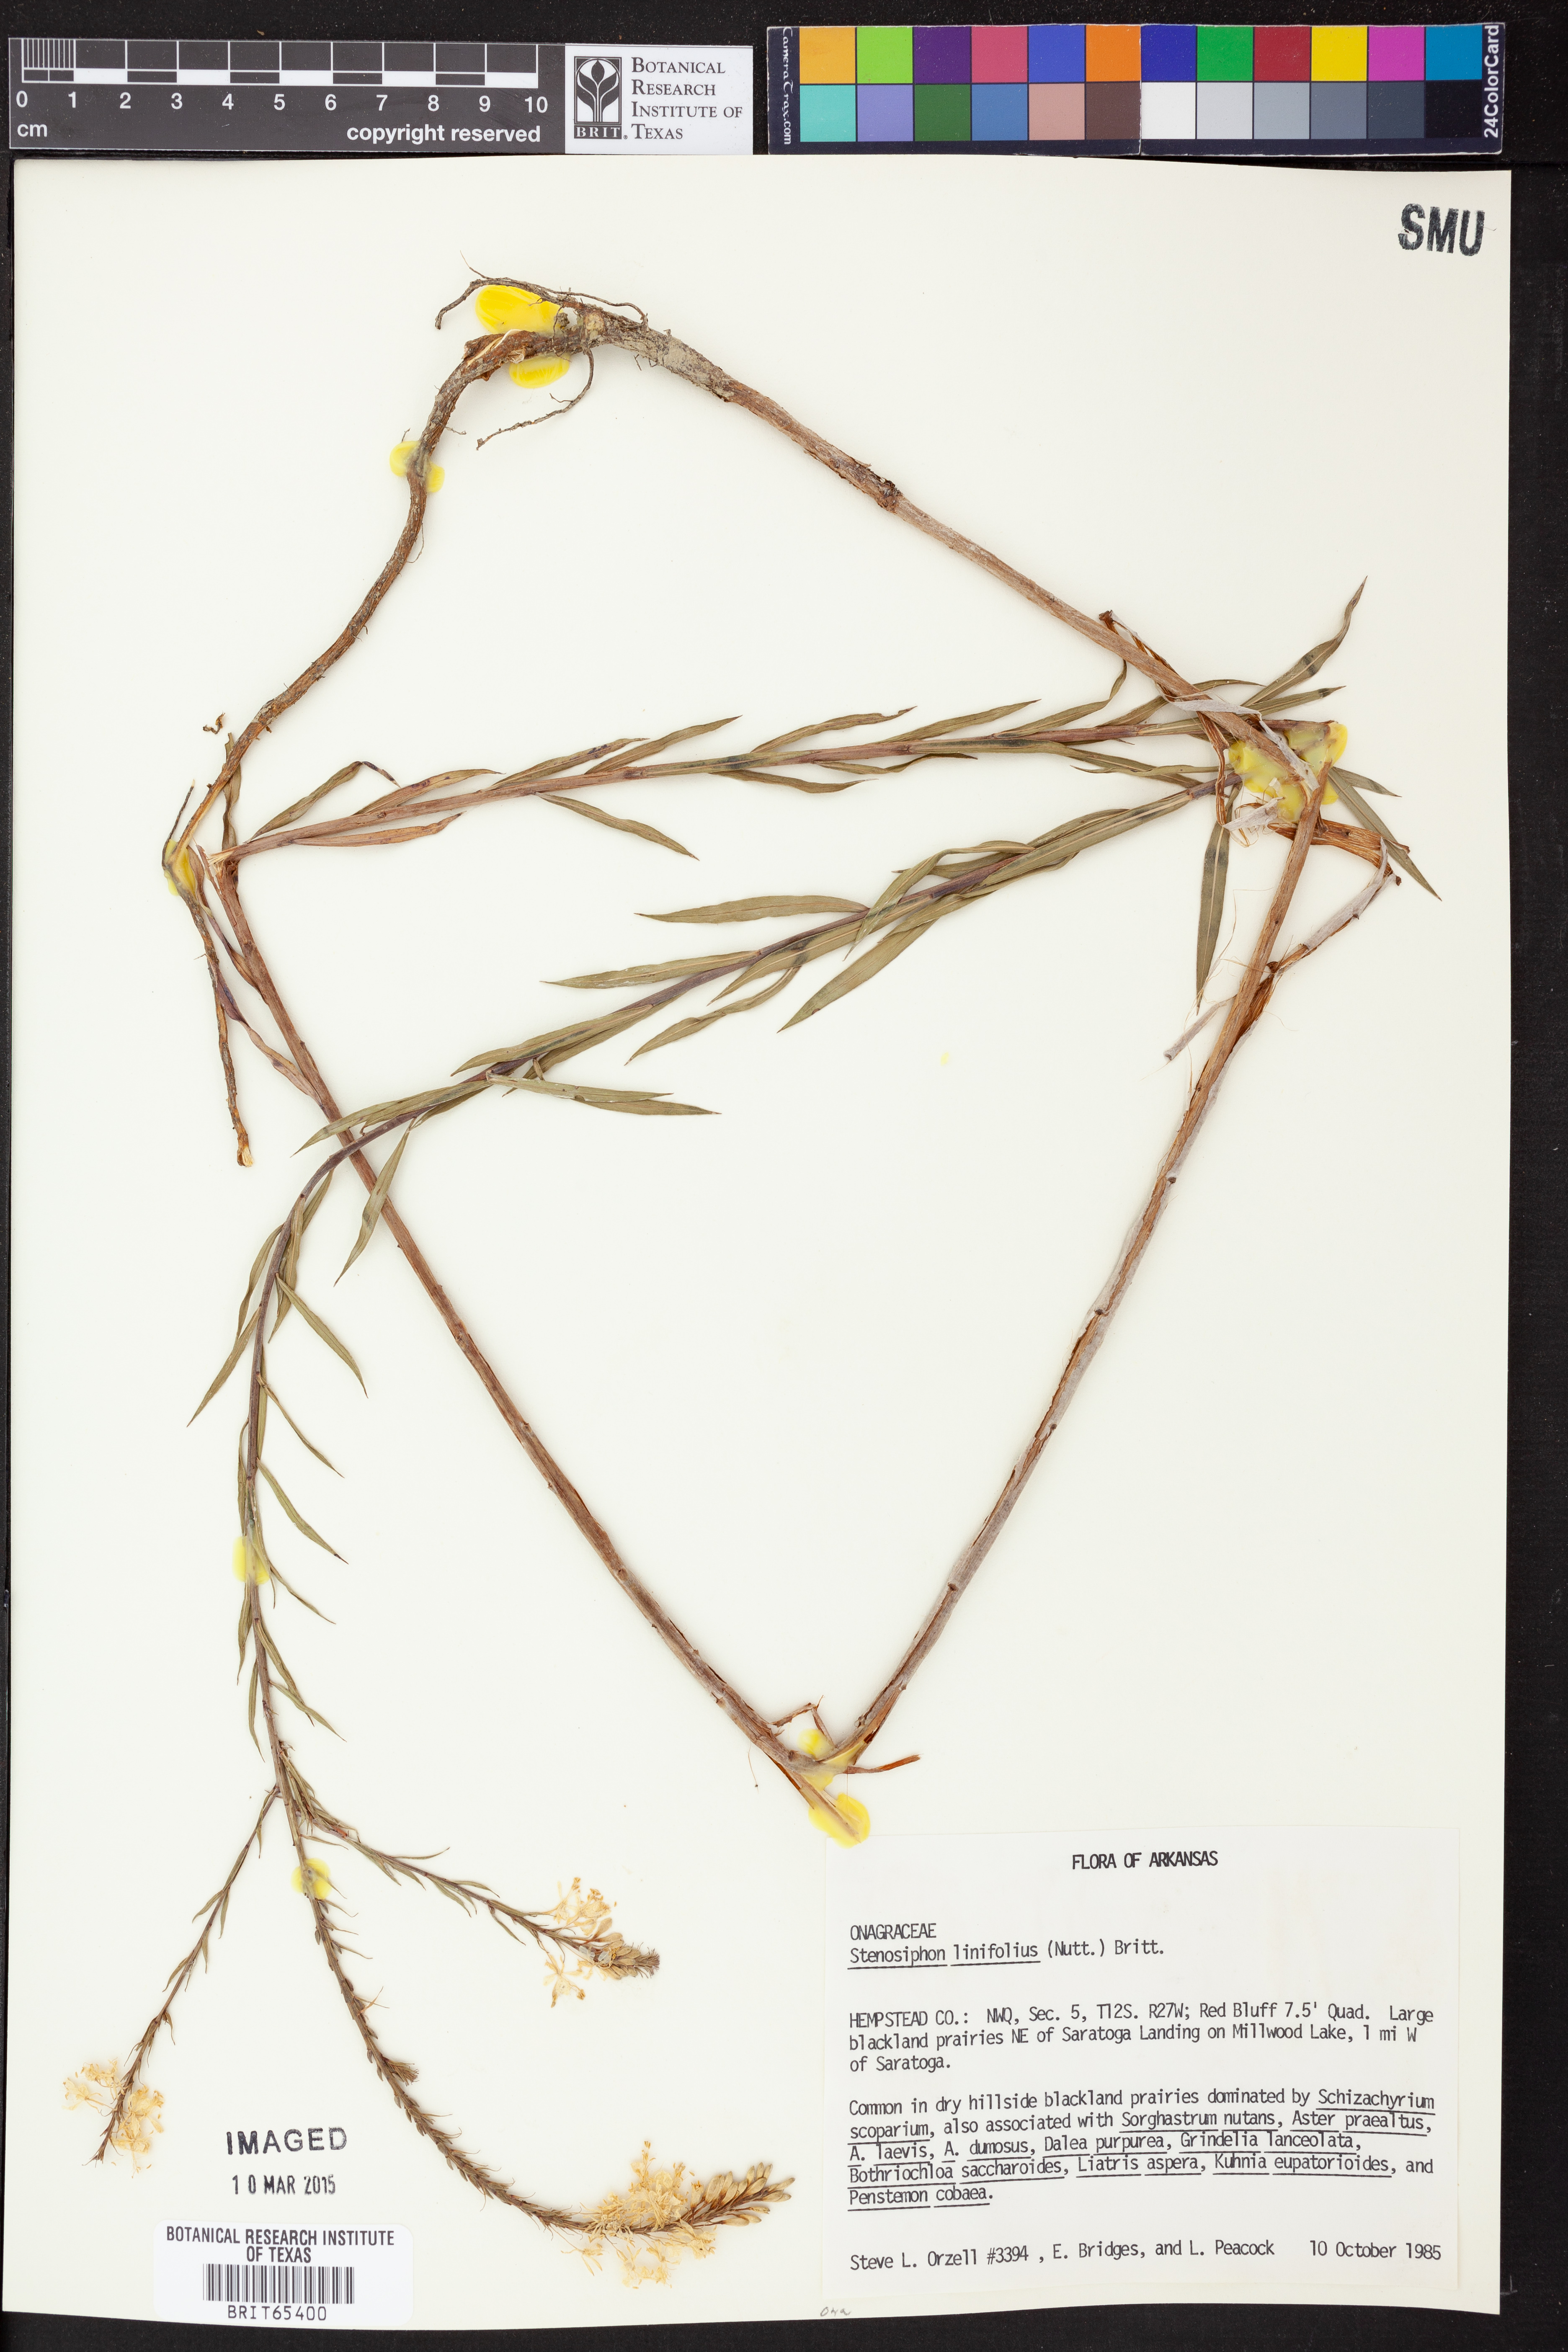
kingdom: Plantae
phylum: Tracheophyta
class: Magnoliopsida
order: Myrtales
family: Onagraceae
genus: Oenothera
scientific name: Oenothera glaucifolia
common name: False gaura
